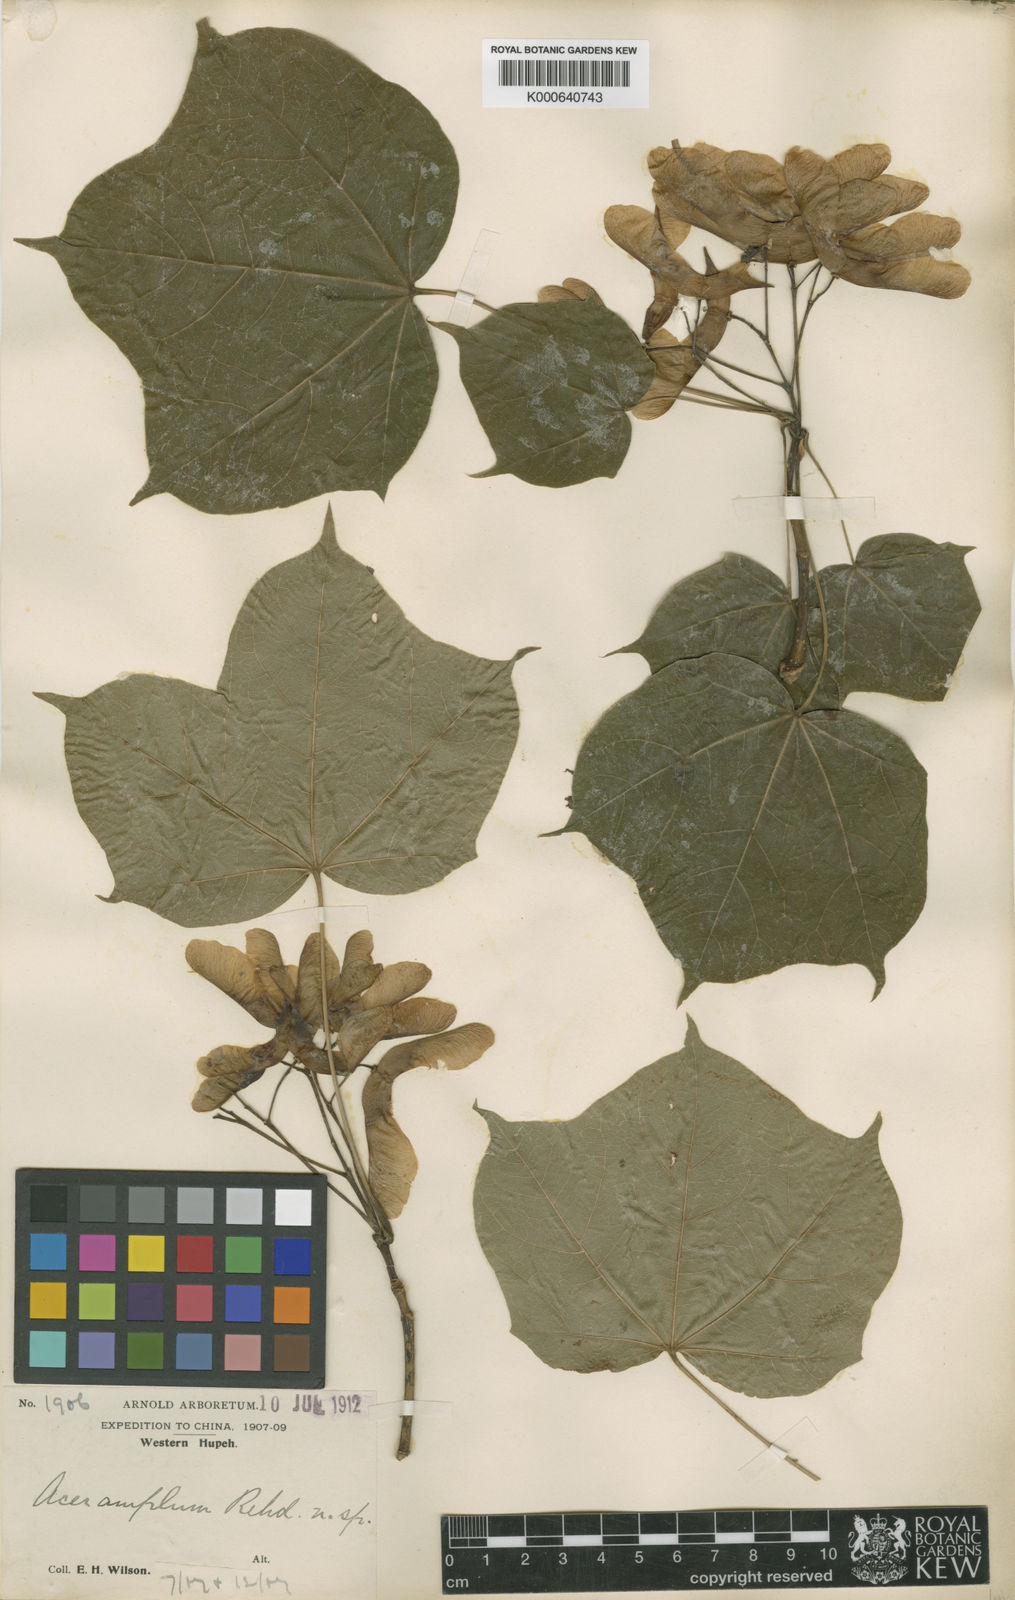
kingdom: Plantae
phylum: Tracheophyta
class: Magnoliopsida
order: Sapindales
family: Sapindaceae
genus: Acer
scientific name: Acer amplum
